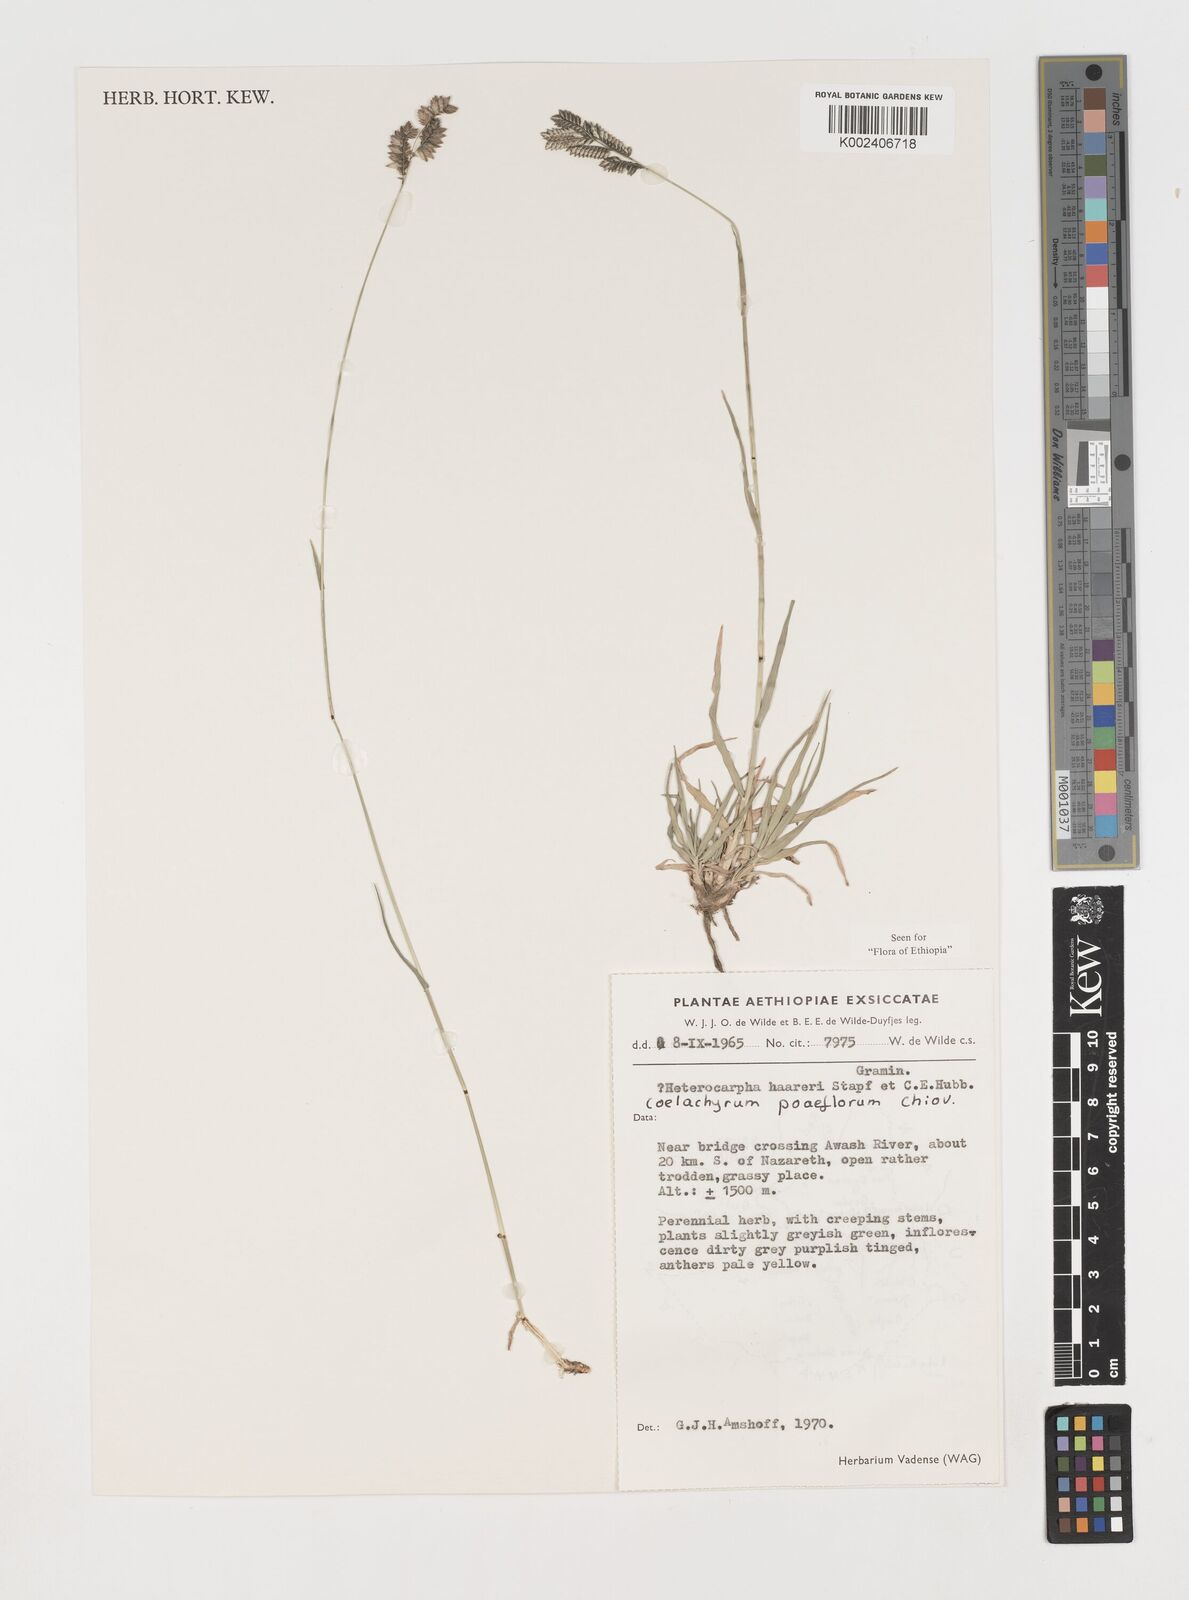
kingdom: Plantae
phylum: Tracheophyta
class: Liliopsida
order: Poales
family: Poaceae
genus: Coelachyrum
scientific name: Coelachyrum poiflorum
